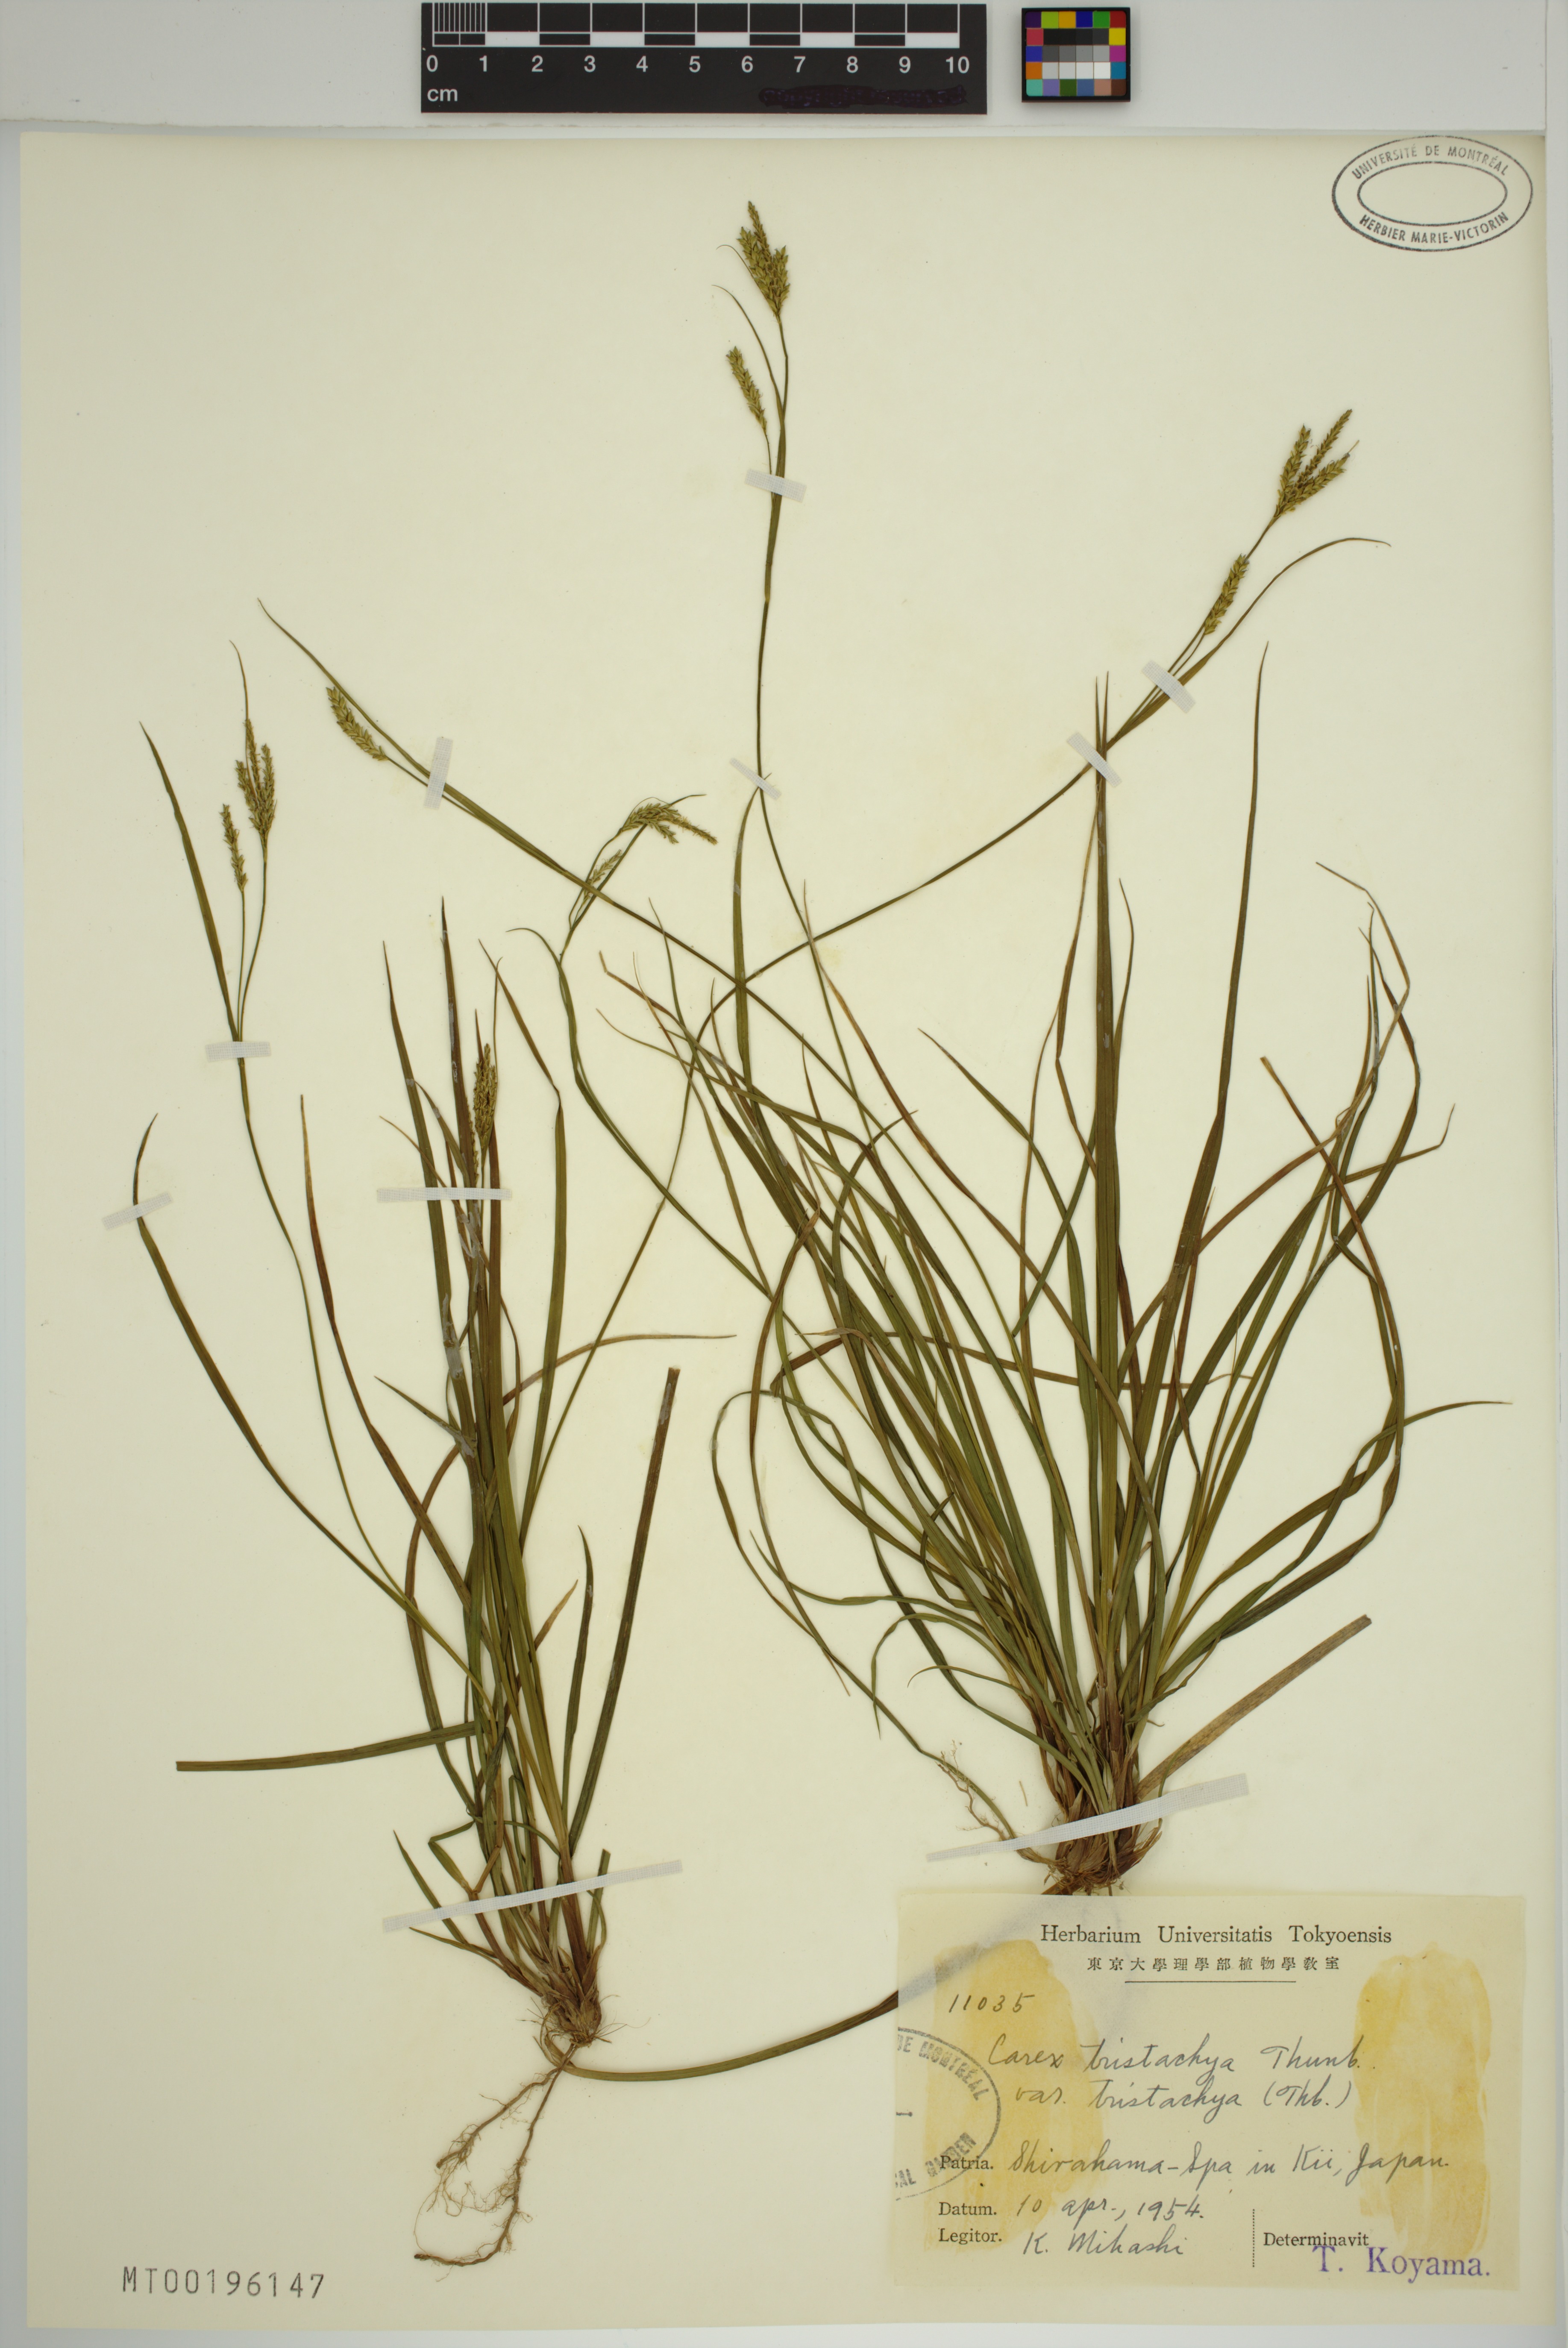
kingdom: Plantae
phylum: Tracheophyta
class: Liliopsida
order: Poales
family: Cyperaceae
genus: Carex
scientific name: Carex tristachya
